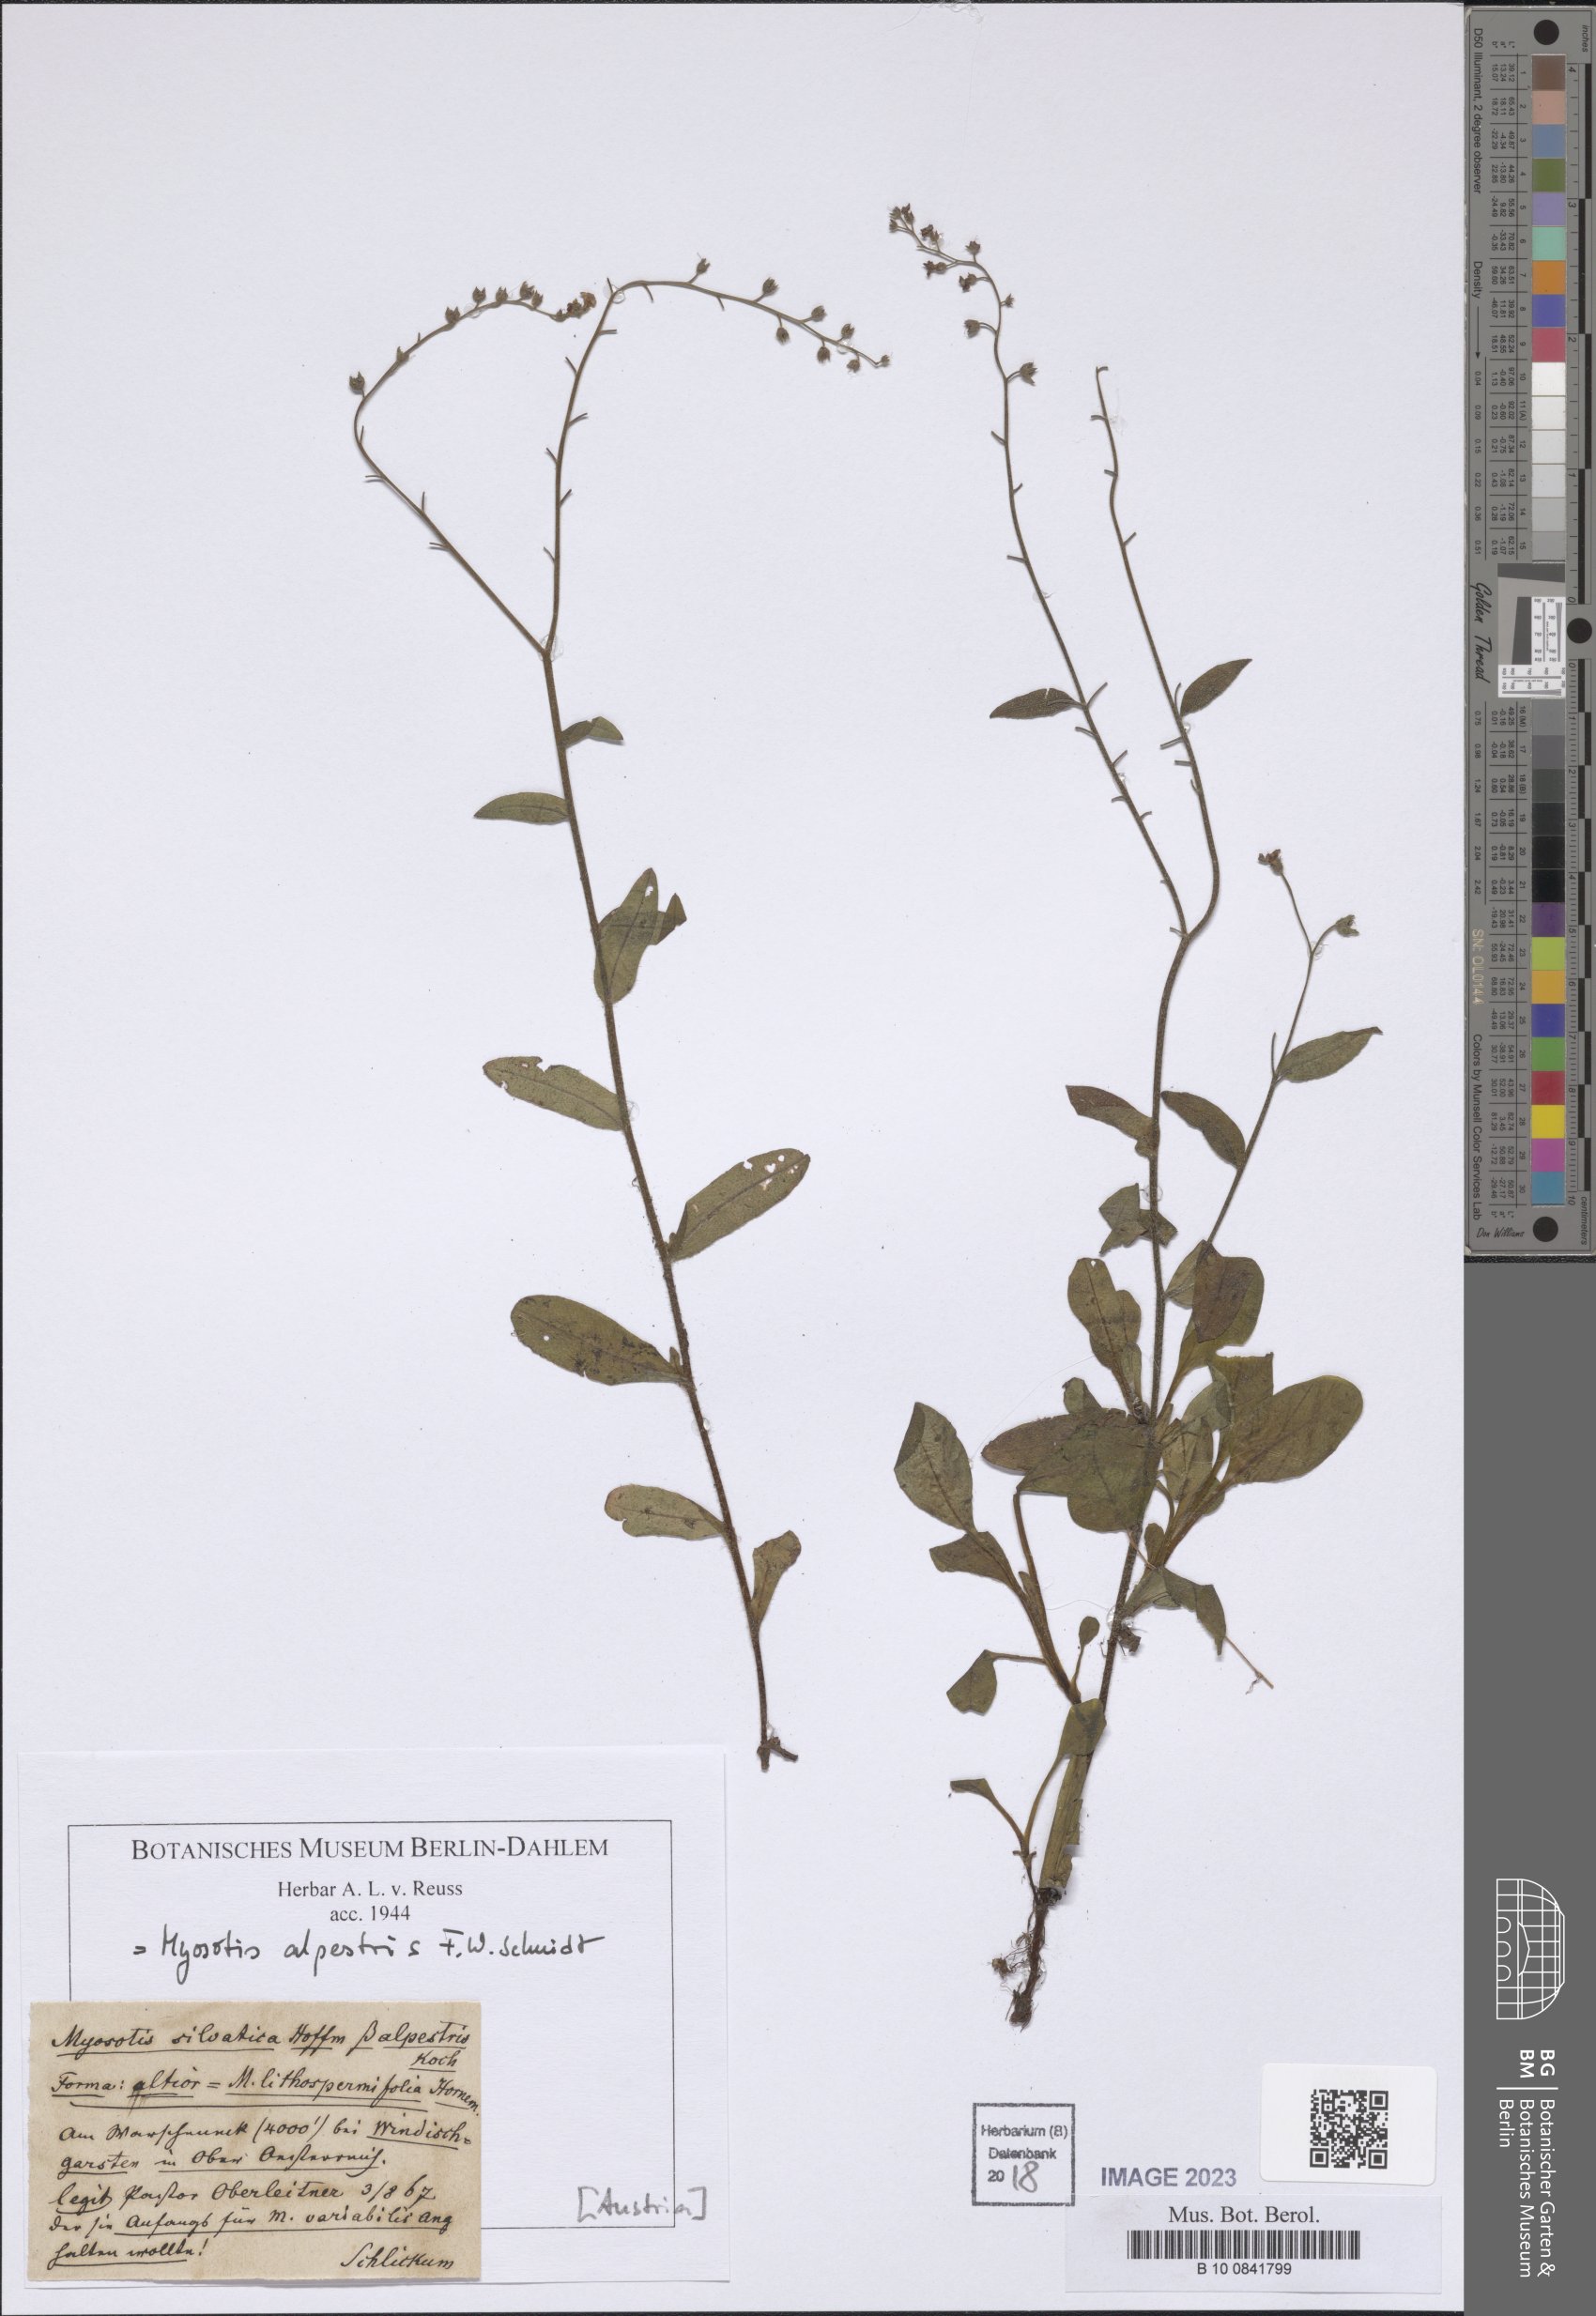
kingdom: Plantae
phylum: Tracheophyta
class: Magnoliopsida
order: Boraginales
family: Boraginaceae
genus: Myosotis
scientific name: Myosotis alpestris
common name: Alpine forget-me-not
